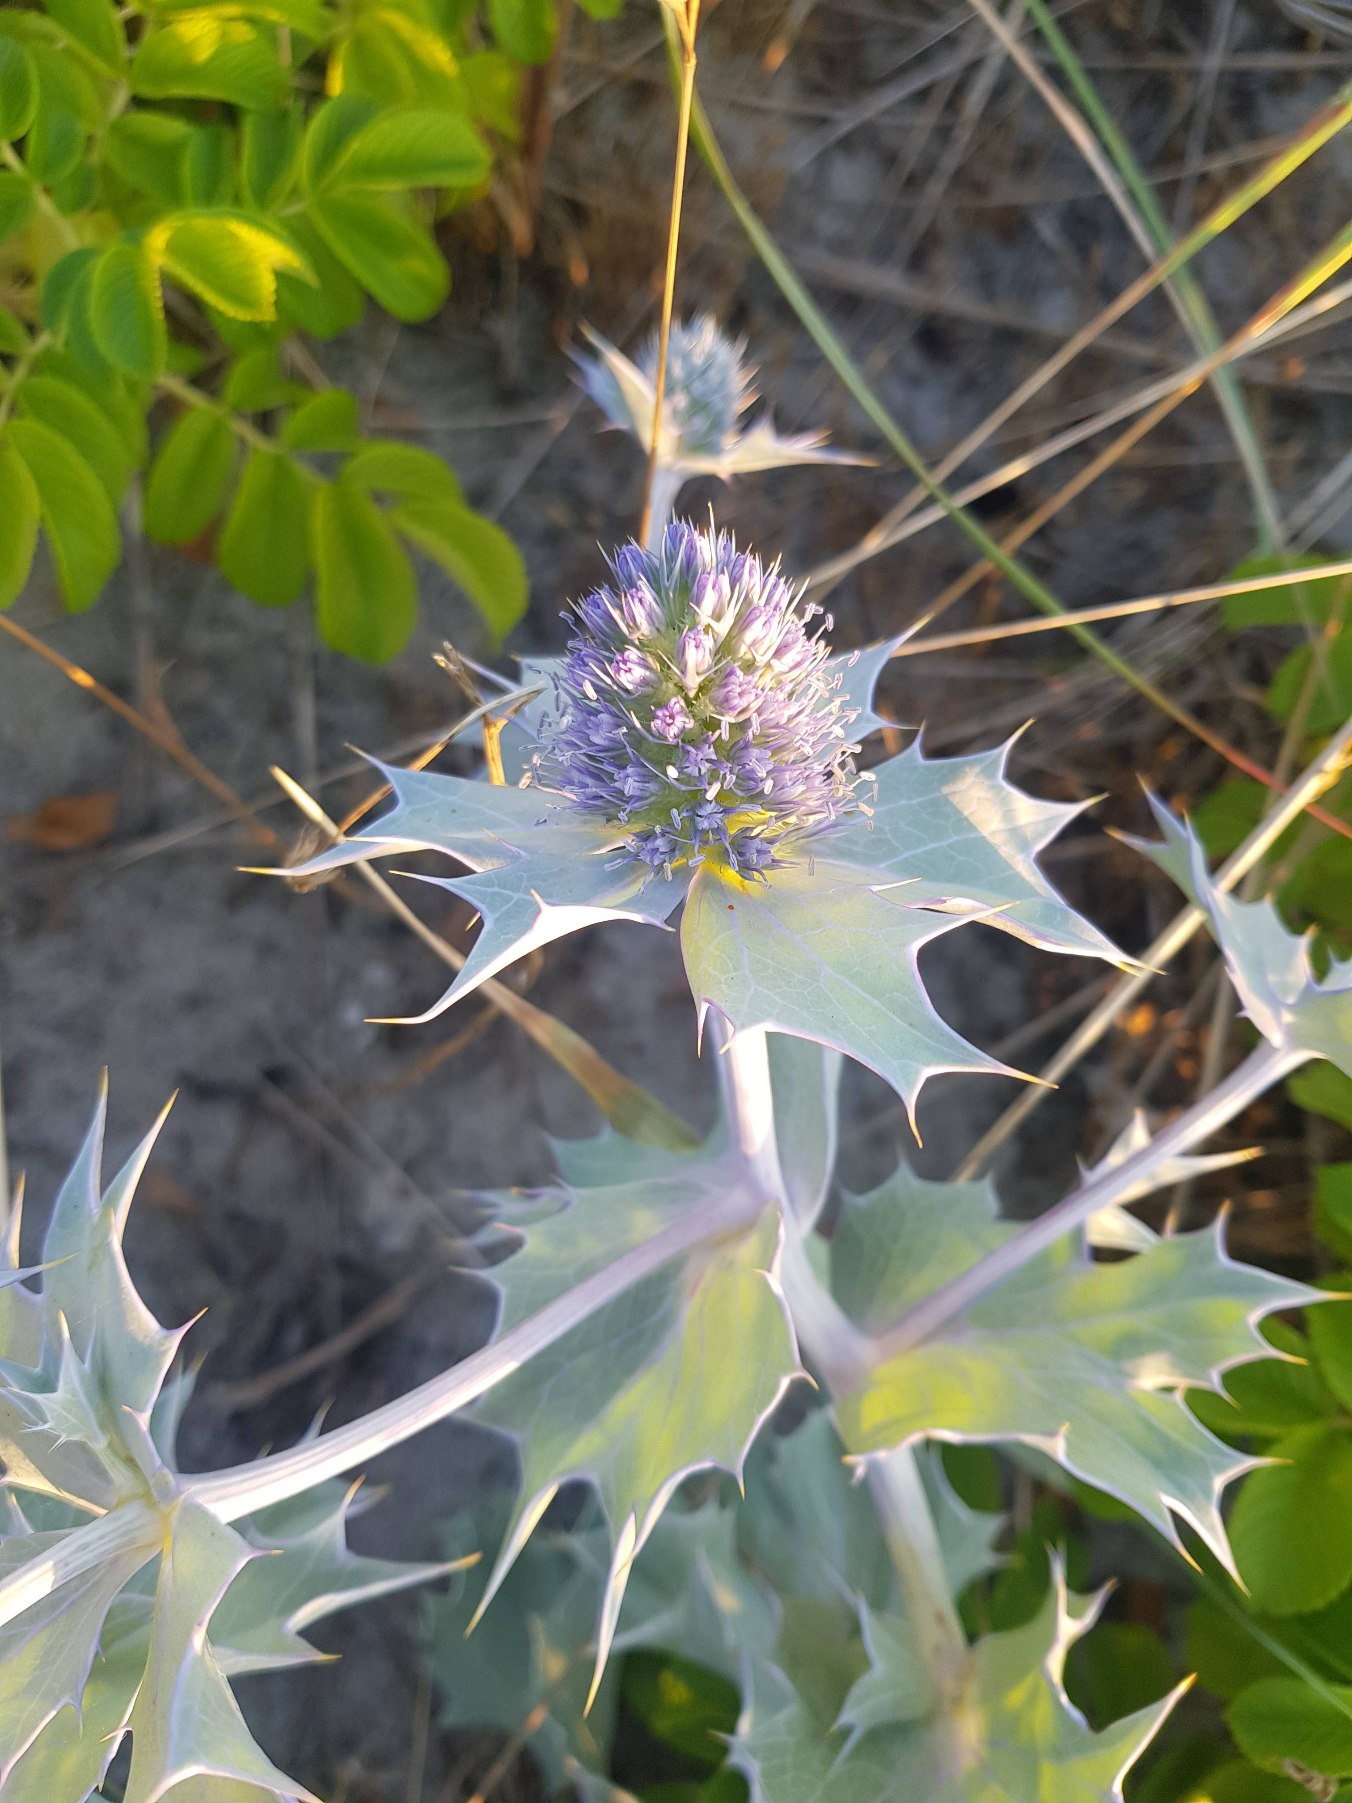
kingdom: Plantae
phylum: Tracheophyta
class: Magnoliopsida
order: Apiales
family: Apiaceae
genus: Eryngium
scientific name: Eryngium maritimum
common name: Strand-mandstro
